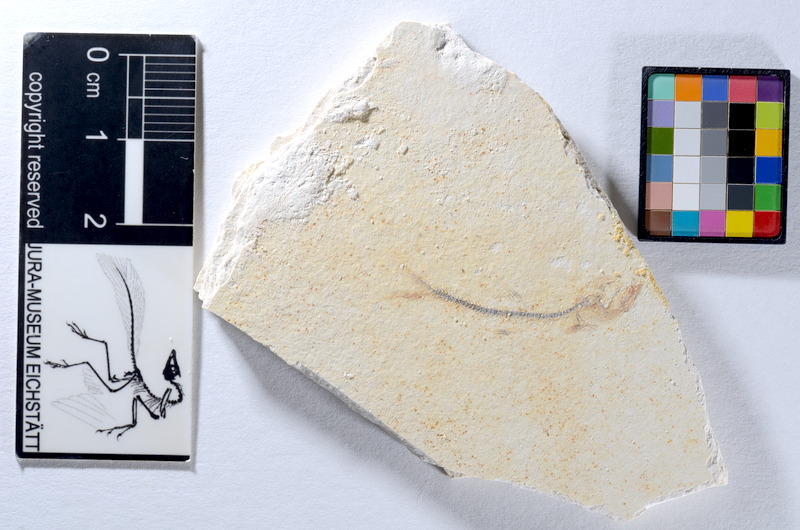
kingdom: Animalia
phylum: Chordata
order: Salmoniformes
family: Orthogonikleithridae
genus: Orthogonikleithrus
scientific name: Orthogonikleithrus hoelli
